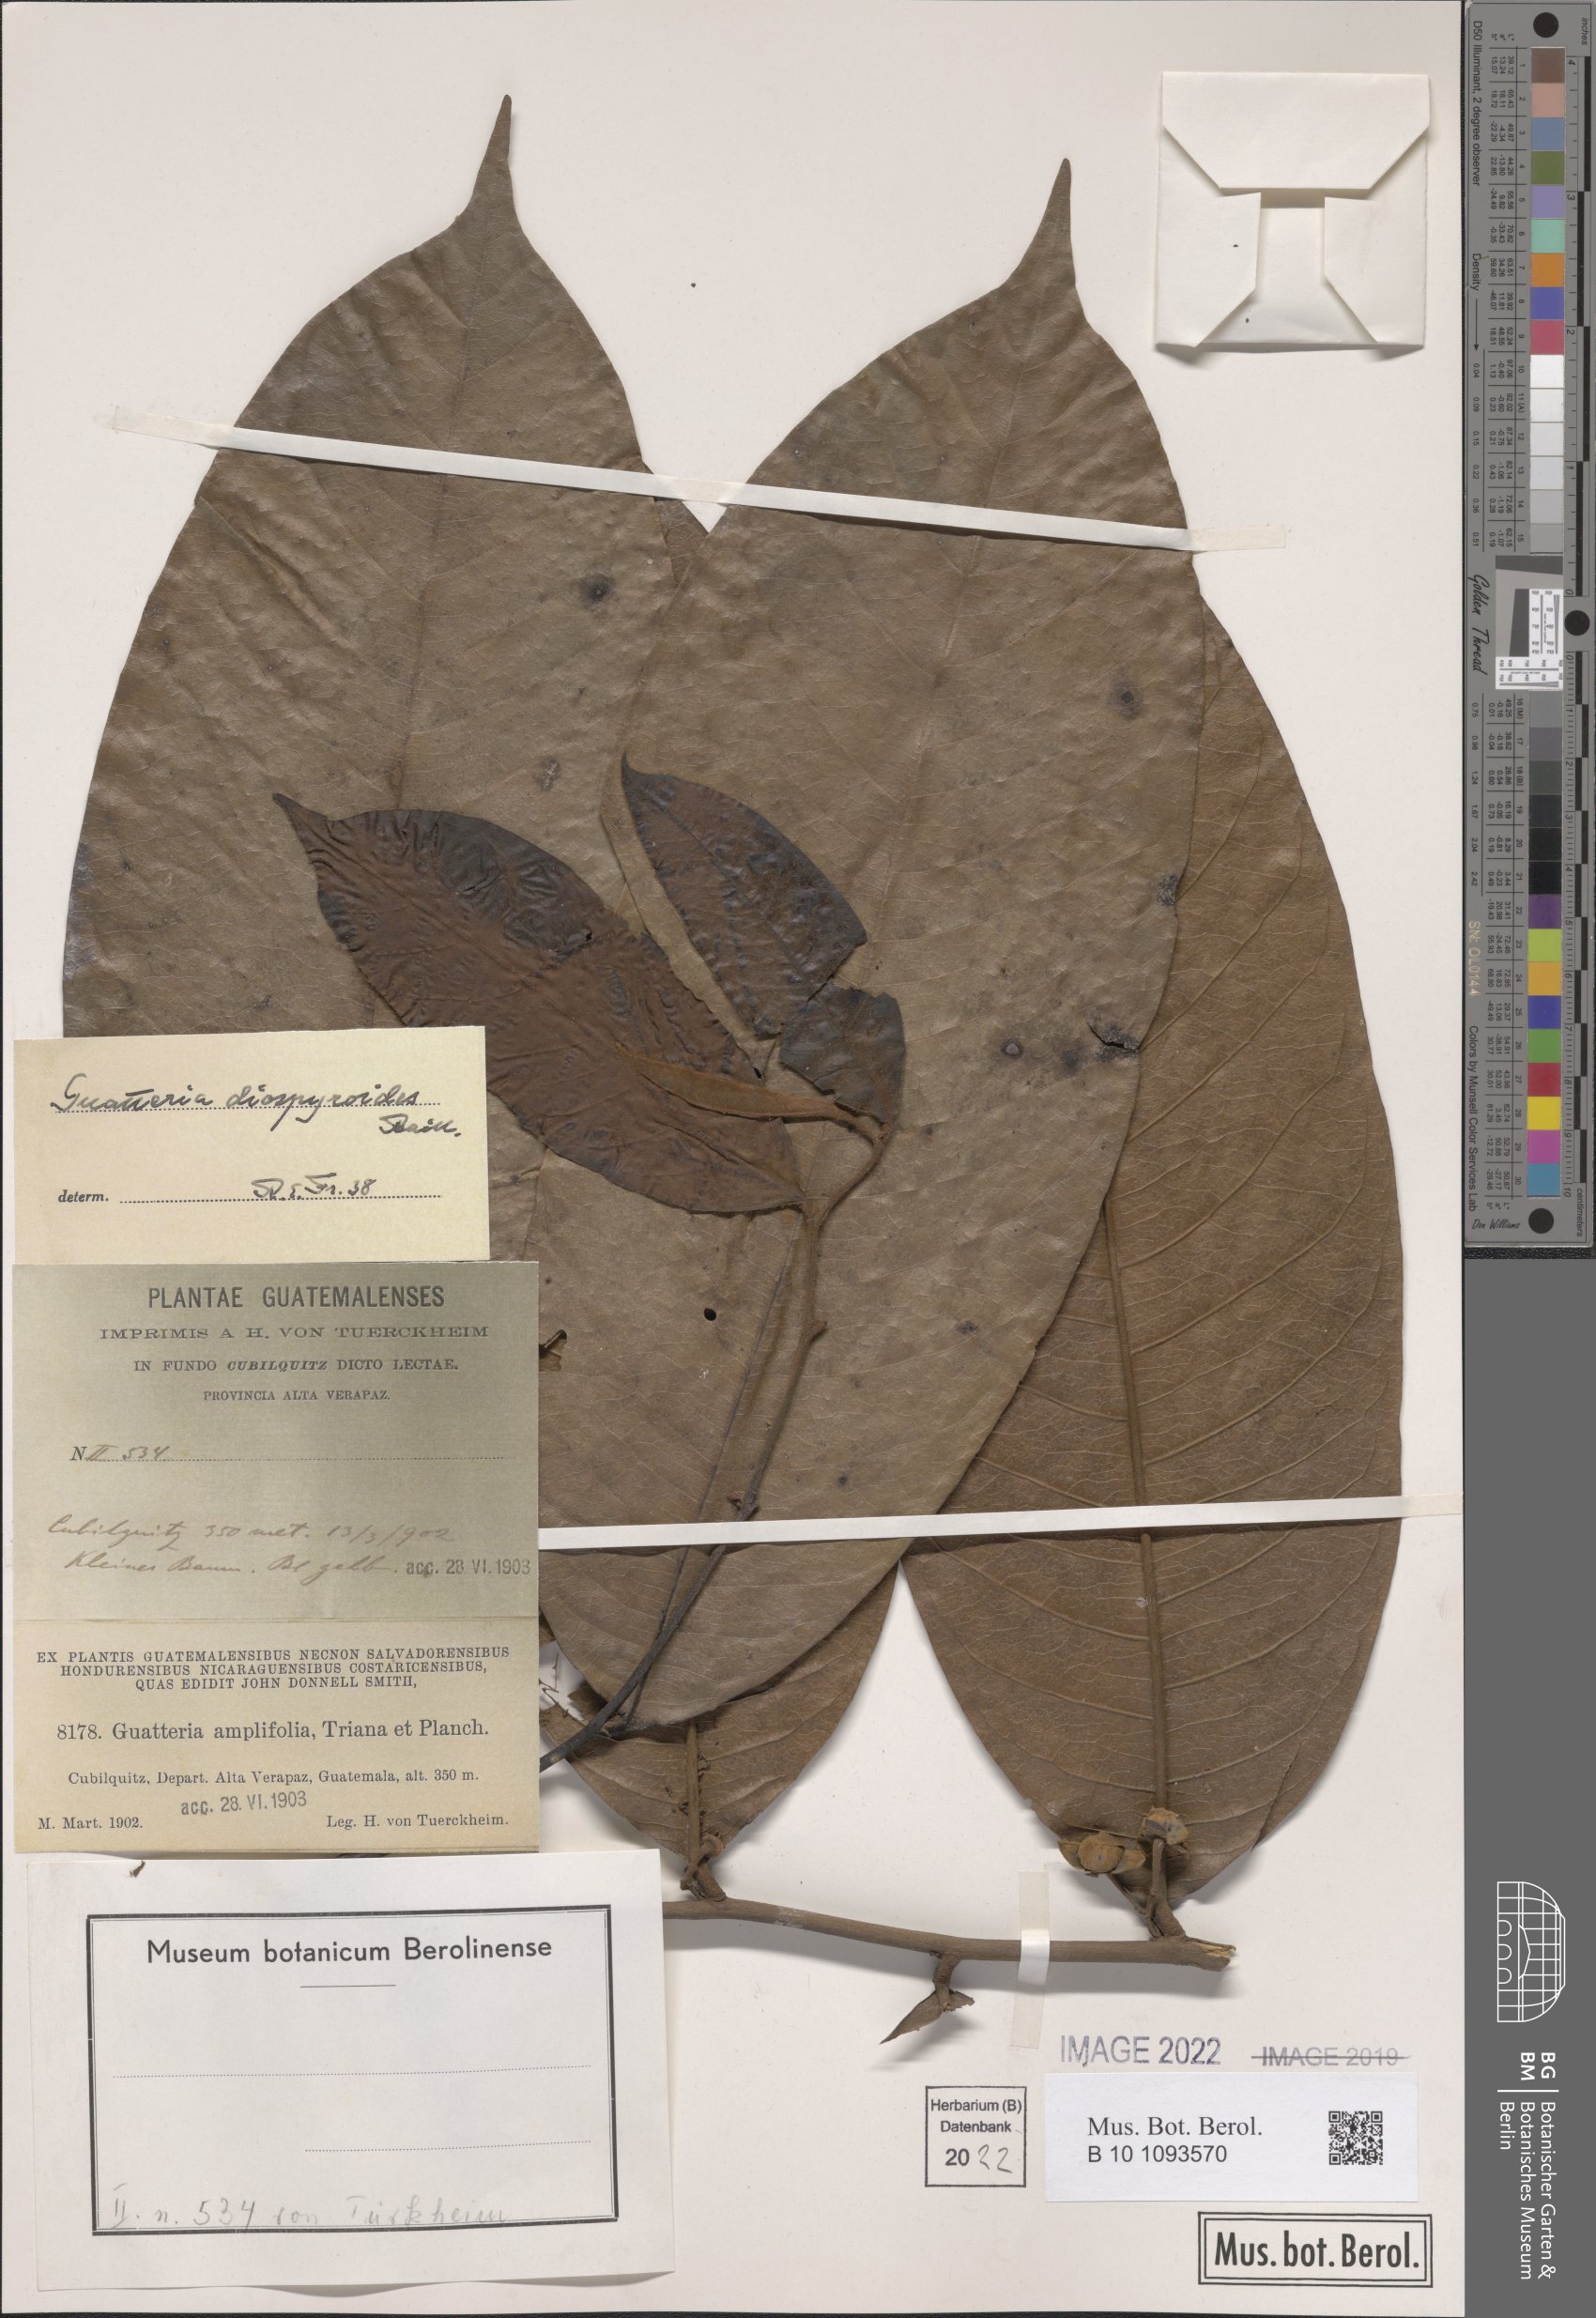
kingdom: Plantae
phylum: Tracheophyta
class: Magnoliopsida
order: Magnoliales
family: Annonaceae
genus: Guatteria
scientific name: Guatteria diospyroides
